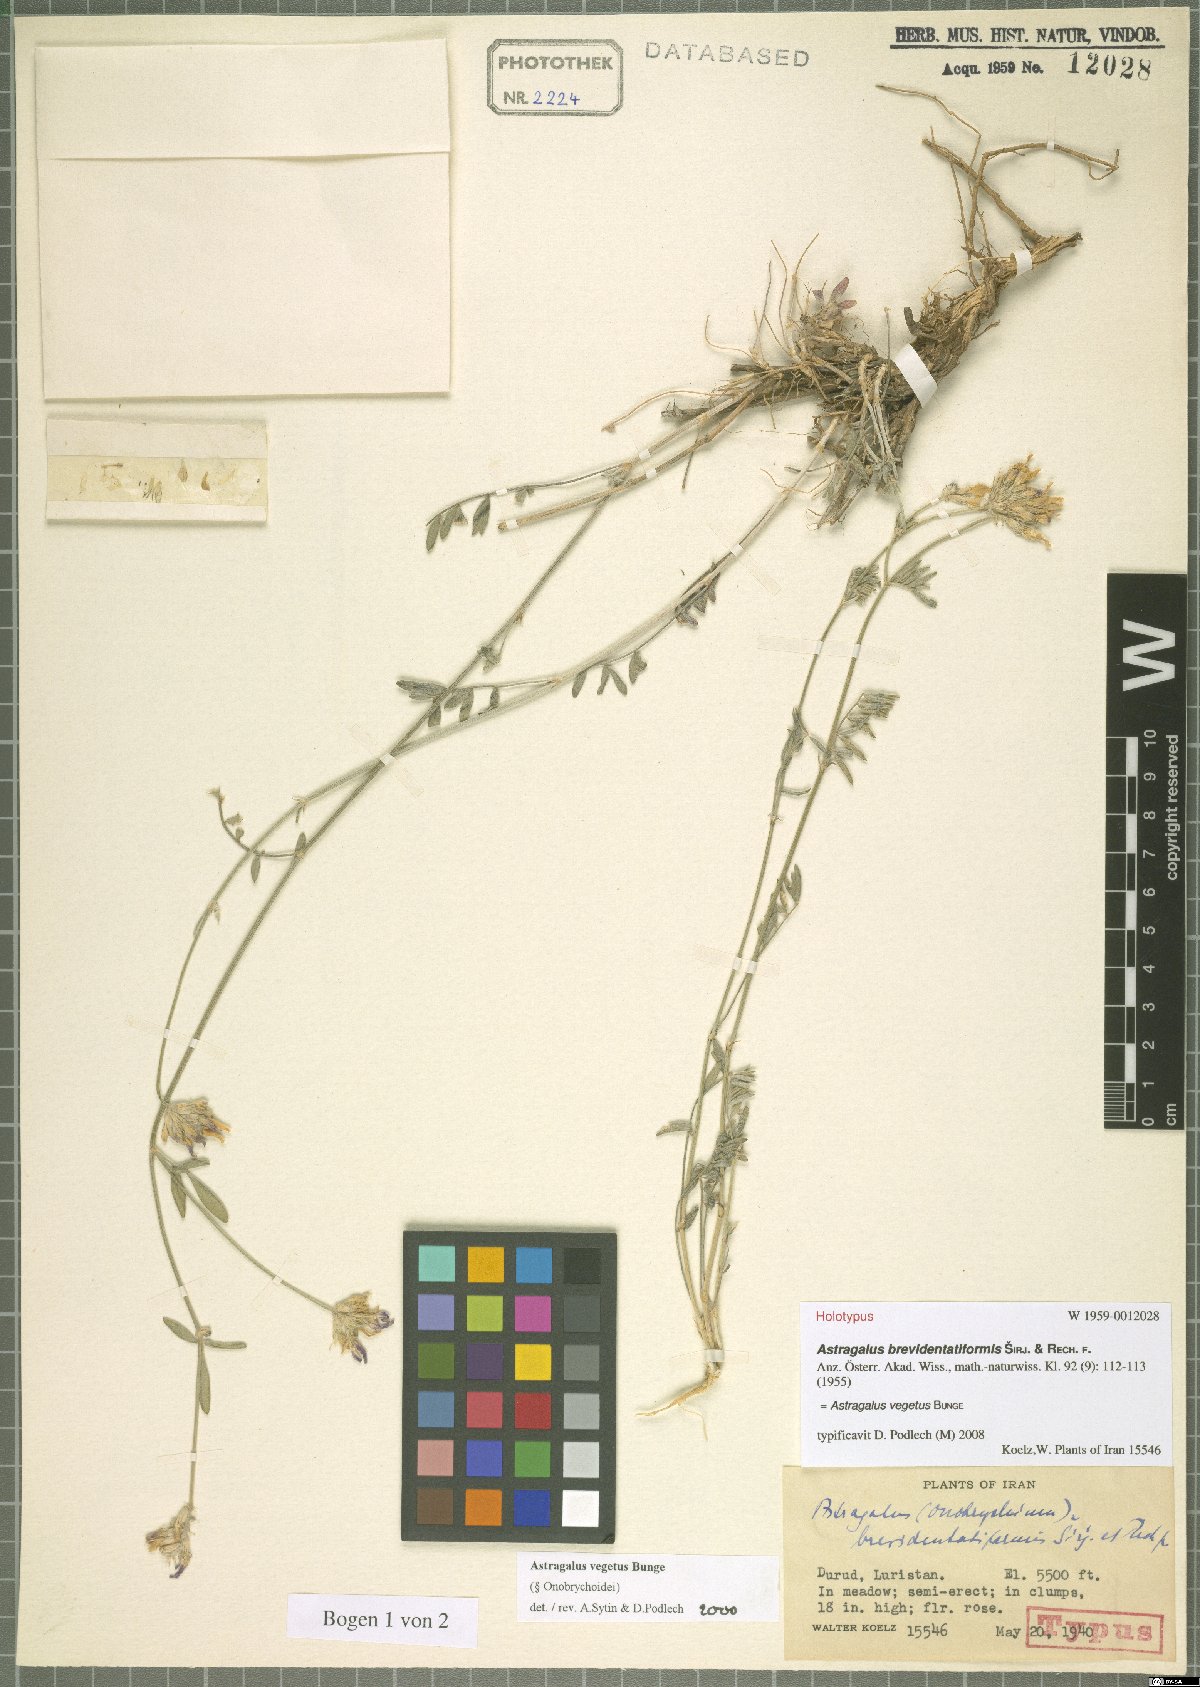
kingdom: Plantae
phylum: Tracheophyta
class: Magnoliopsida
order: Fabales
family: Fabaceae
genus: Astragalus
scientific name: Astragalus vegetus
